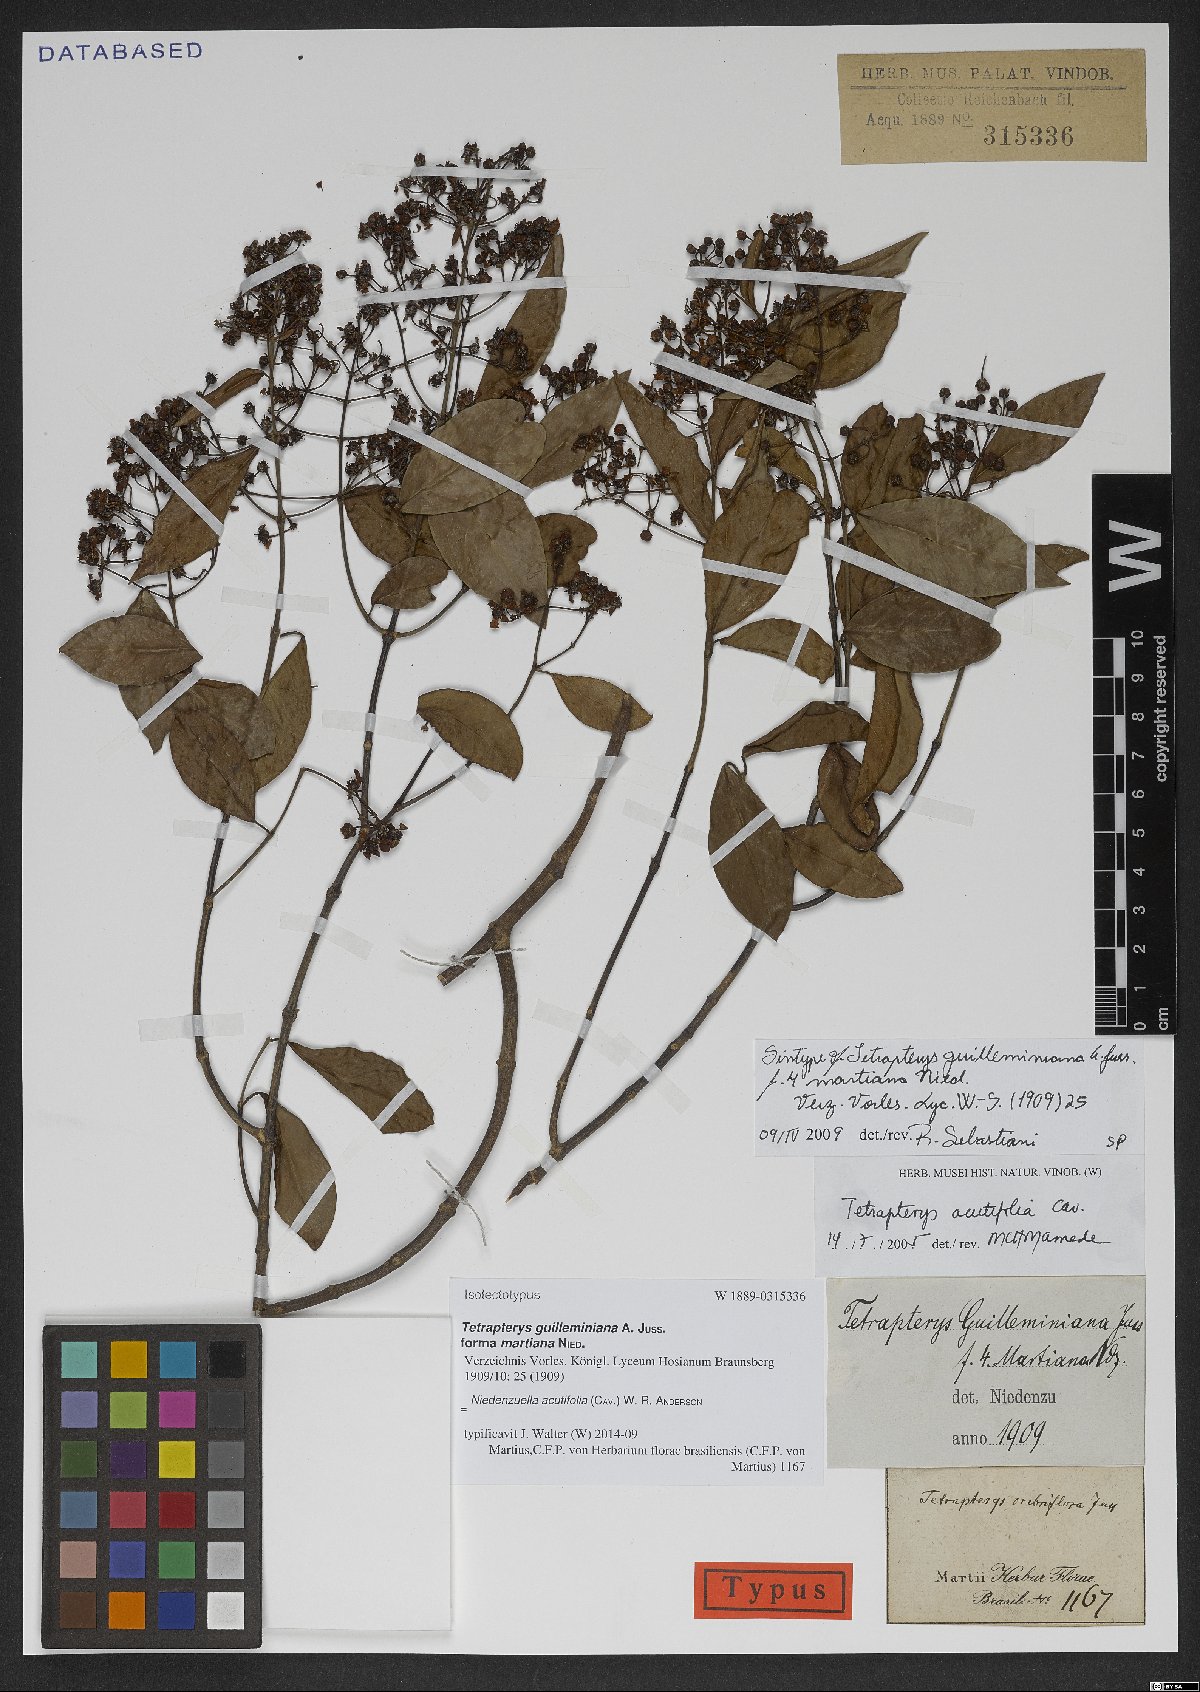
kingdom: Plantae
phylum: Tracheophyta
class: Magnoliopsida
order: Malpighiales
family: Malpighiaceae
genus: Niedenzuella
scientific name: Niedenzuella acutifolia
